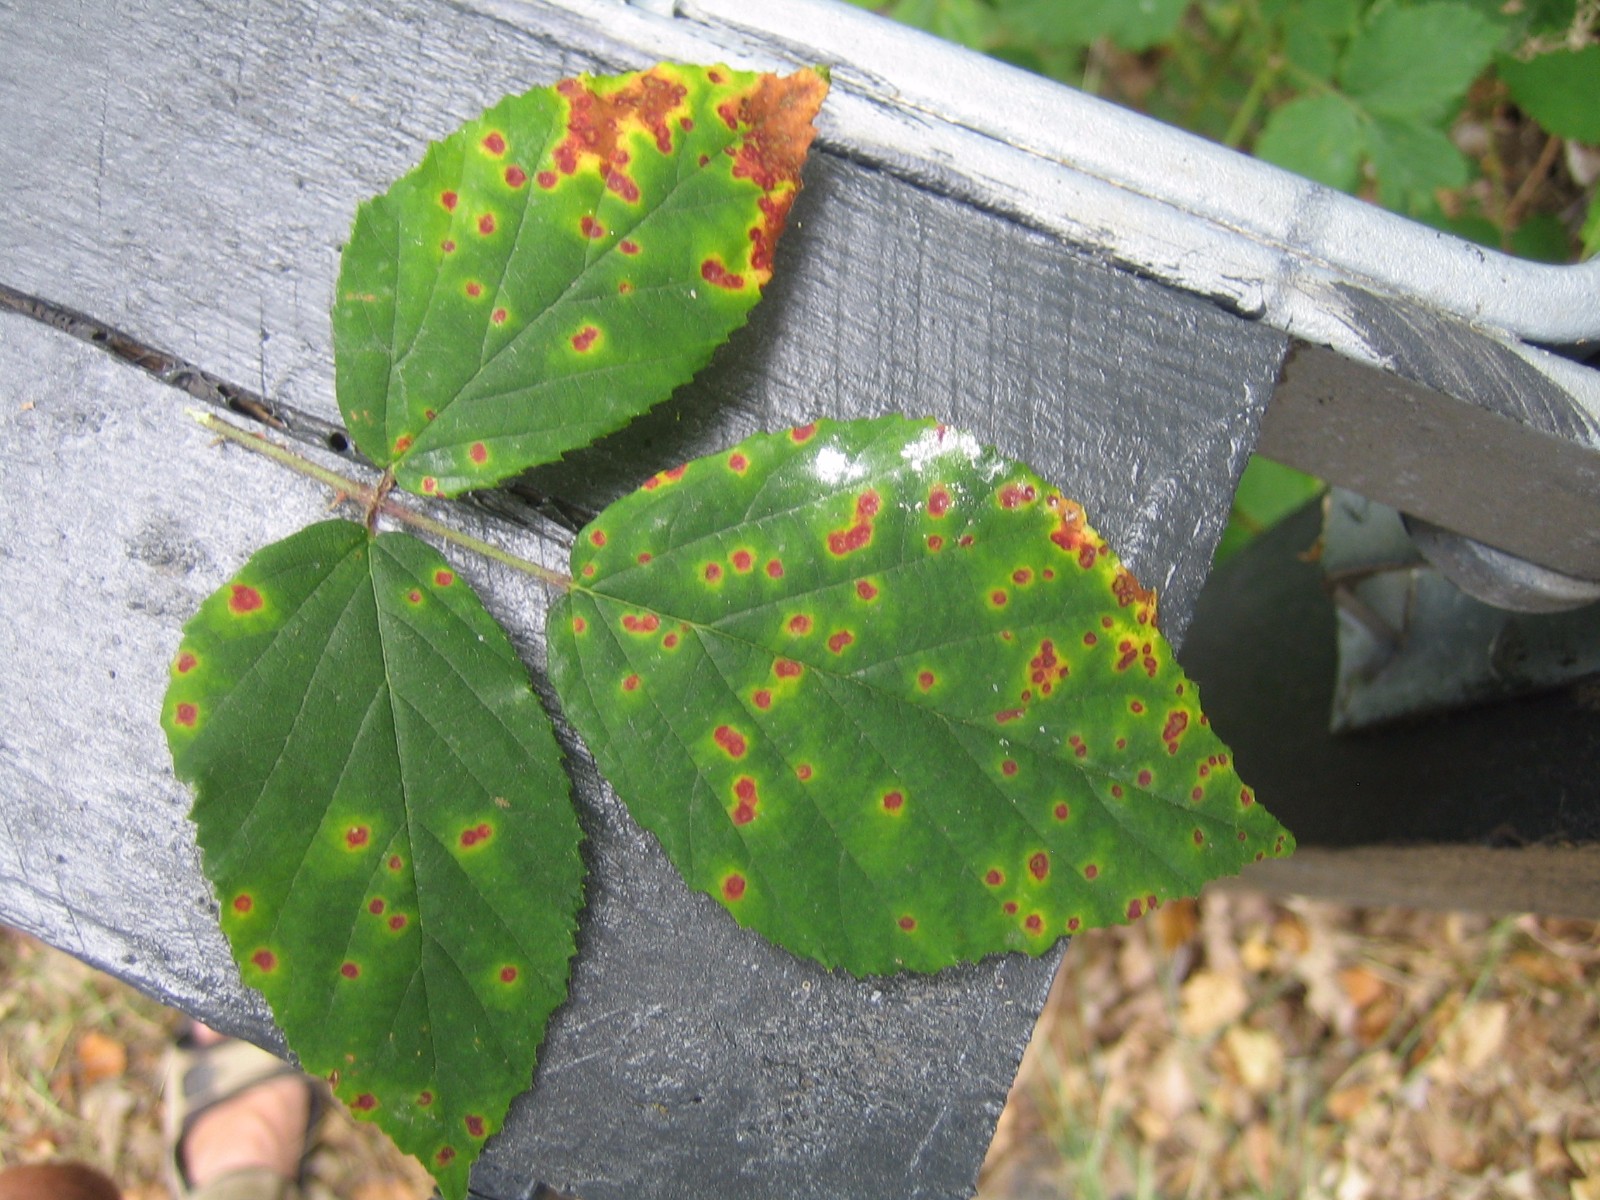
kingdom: Fungi
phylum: Basidiomycota
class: Pucciniomycetes
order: Pucciniales
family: Phragmidiaceae
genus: Phragmidium
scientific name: Phragmidium
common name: flercellerust
